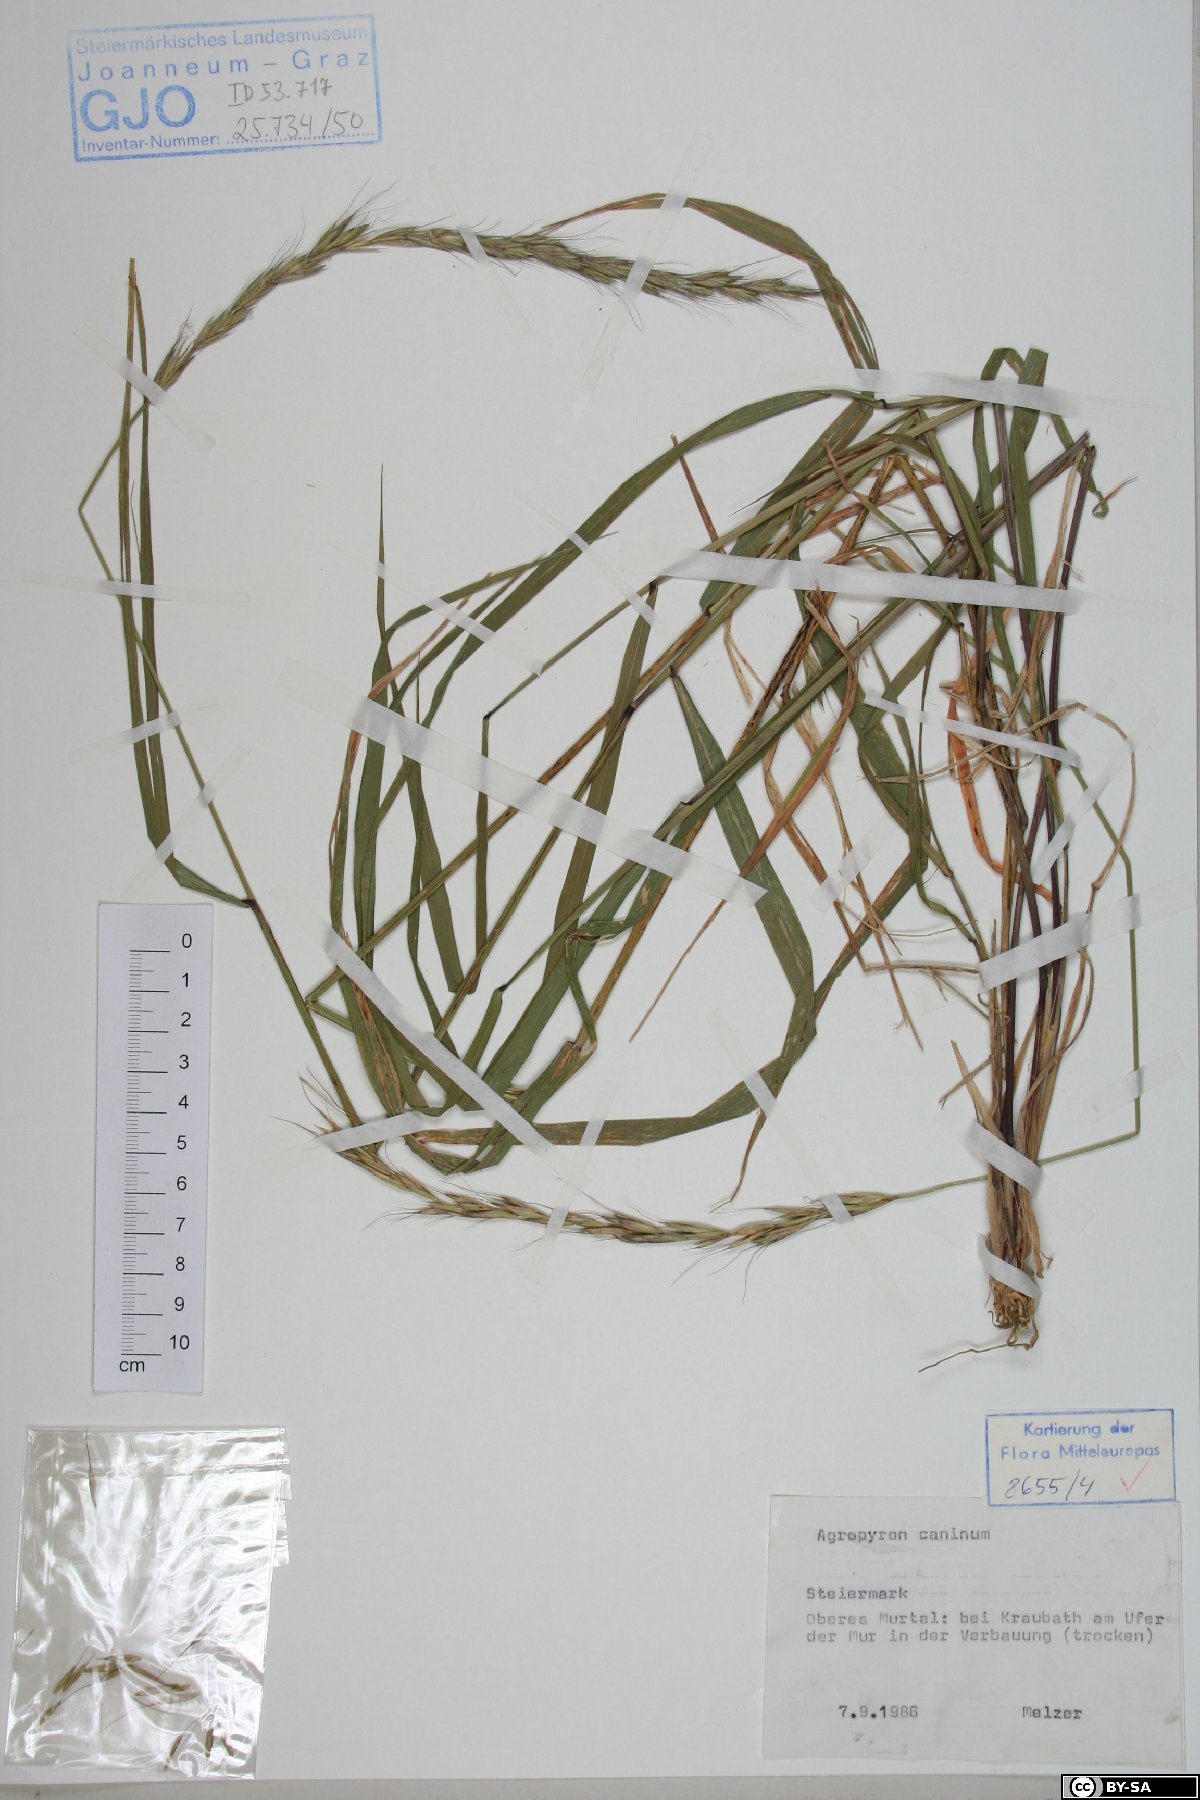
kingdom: Plantae
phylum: Tracheophyta
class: Liliopsida
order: Poales
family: Poaceae
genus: Elymus
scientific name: Elymus caninus
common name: Bearded couch
